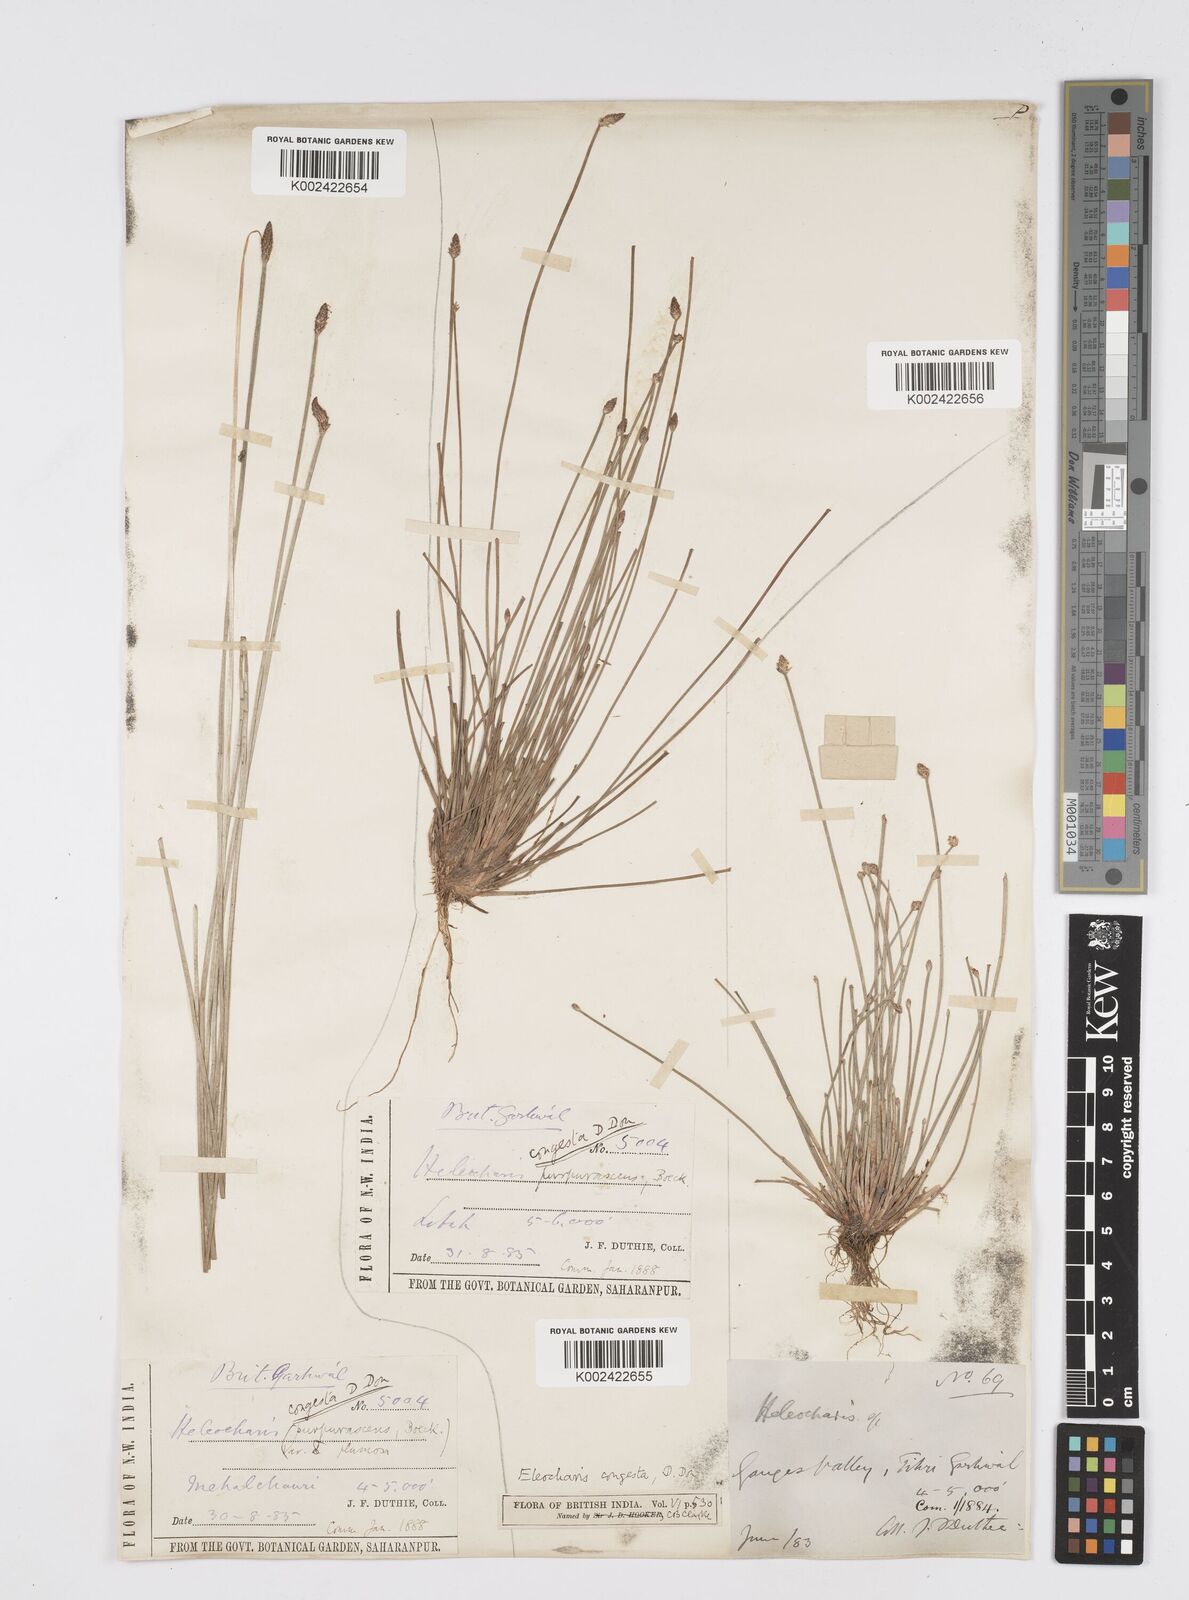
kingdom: Plantae
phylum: Tracheophyta
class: Liliopsida
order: Poales
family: Cyperaceae
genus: Eleocharis
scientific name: Eleocharis congesta
